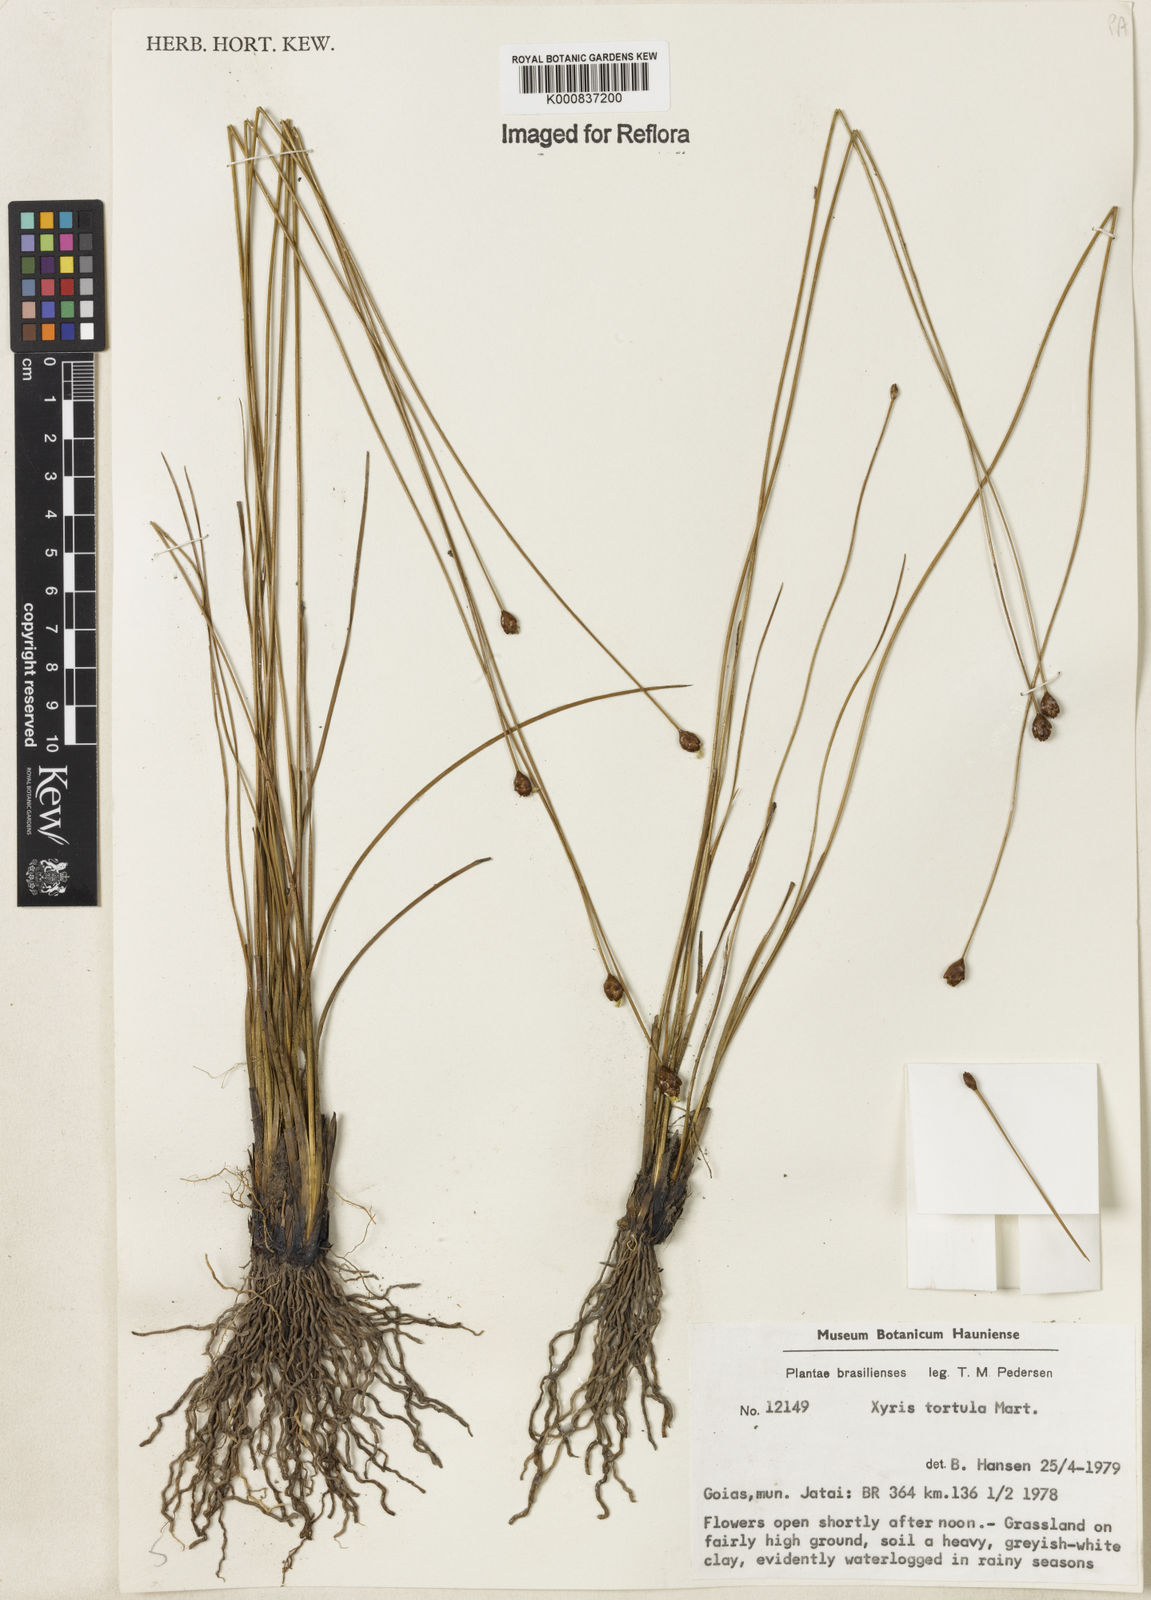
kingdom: Plantae
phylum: Tracheophyta
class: Liliopsida
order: Poales
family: Xyridaceae
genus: Xyris
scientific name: Xyris tortula
